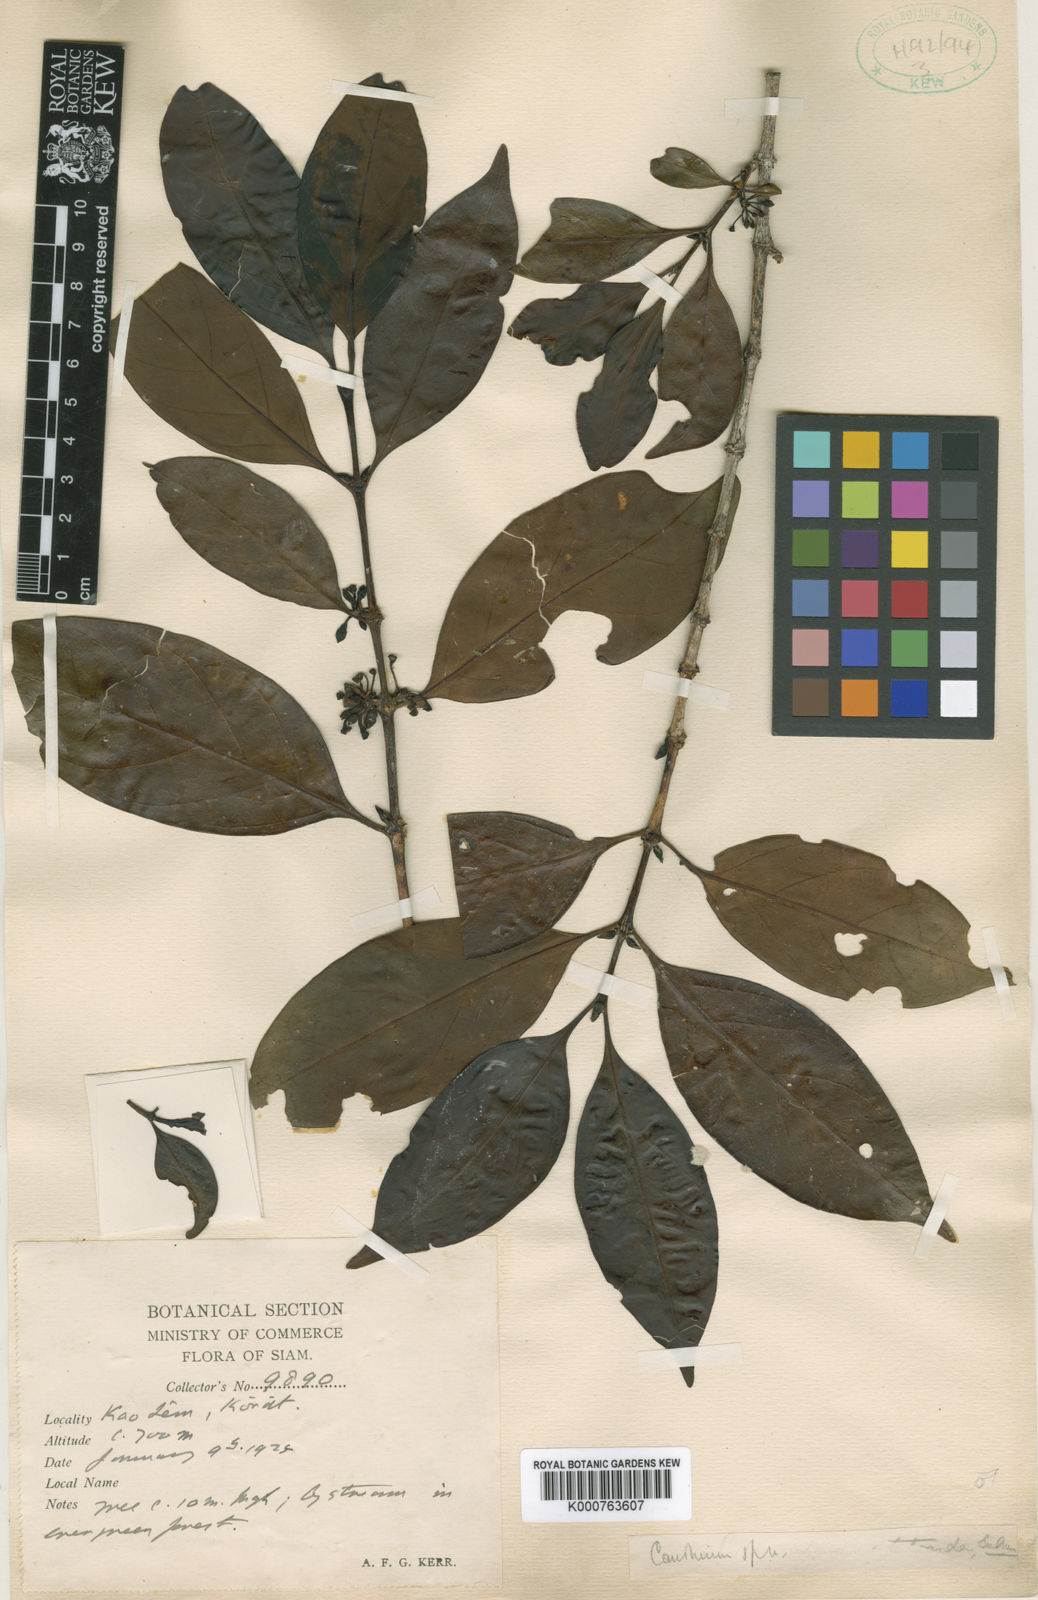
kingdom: Plantae
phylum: Tracheophyta
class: Magnoliopsida
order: Gentianales
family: Rubiaceae
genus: Pyrostria
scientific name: Pyrostria cochinchinensis
